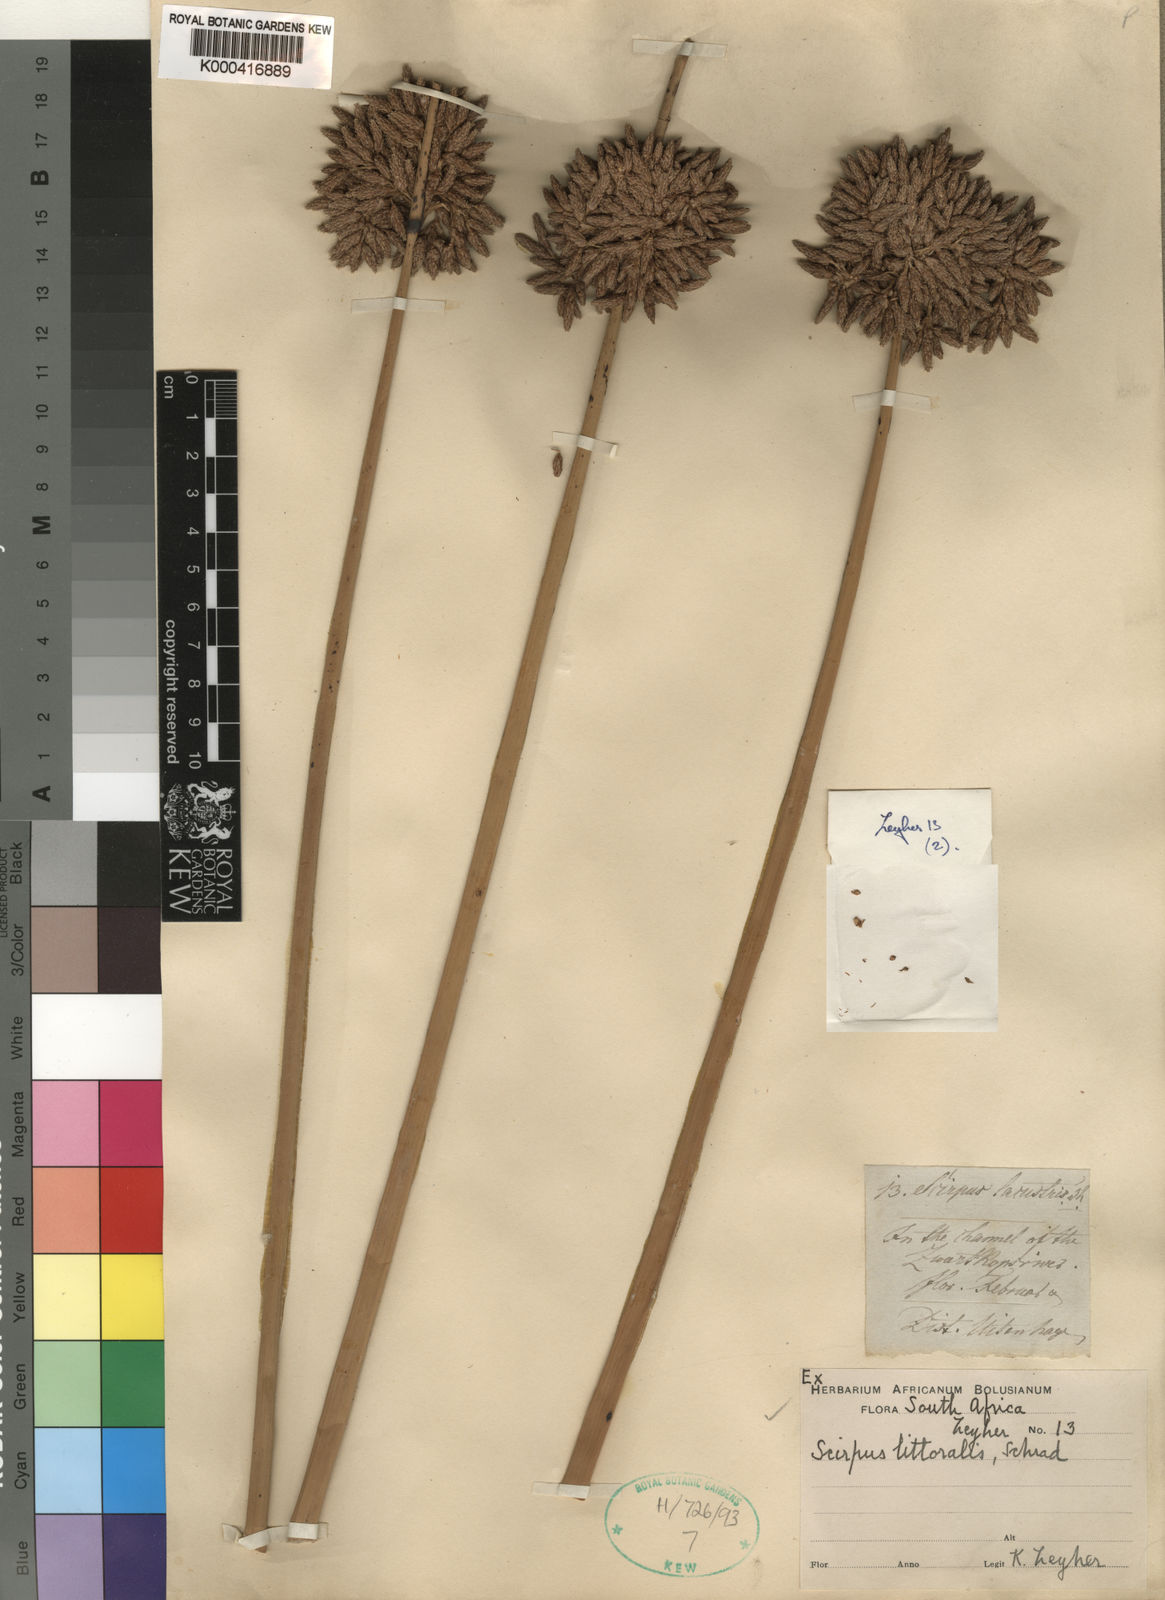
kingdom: Plantae
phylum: Tracheophyta
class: Liliopsida
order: Poales
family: Cyperaceae
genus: Schoenoplectus
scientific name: Schoenoplectus litoralis
